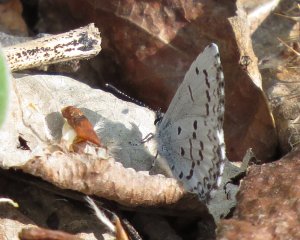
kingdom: Animalia
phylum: Arthropoda
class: Insecta
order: Lepidoptera
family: Lycaenidae
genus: Celastrina
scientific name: Celastrina lucia
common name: Northern Spring Azure
